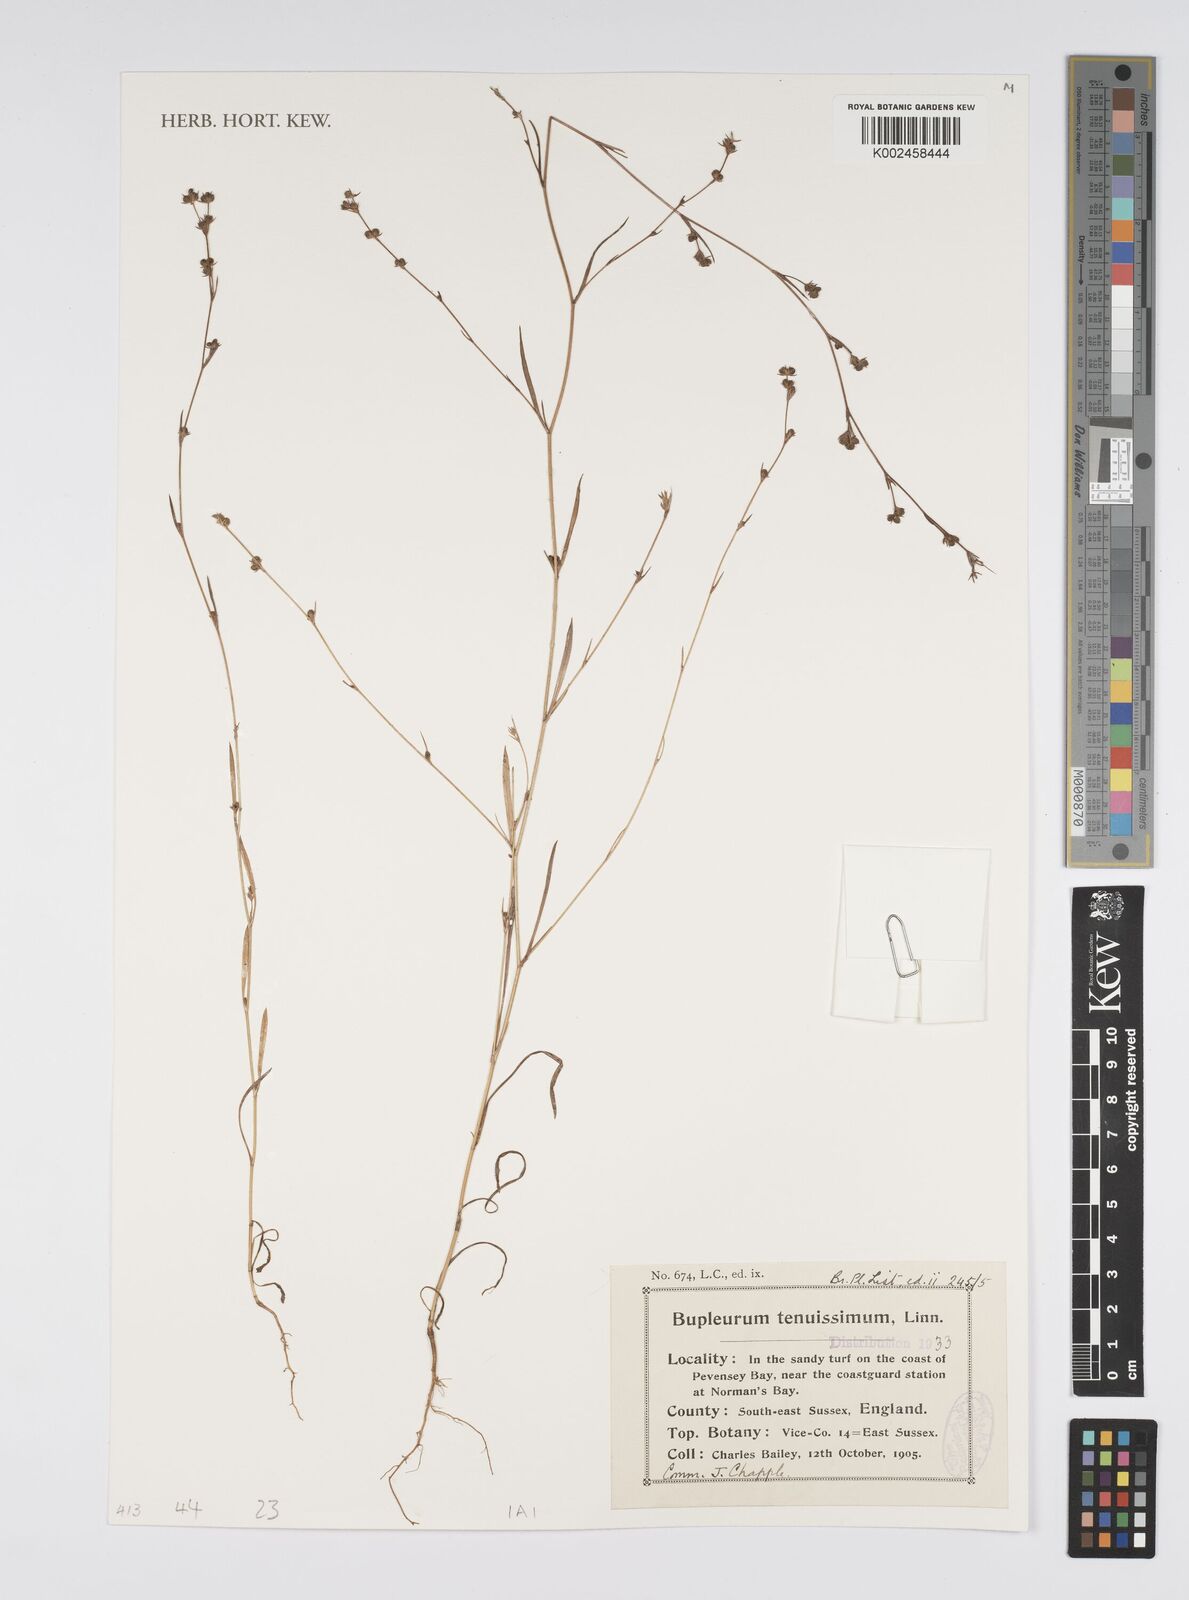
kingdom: Plantae
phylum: Tracheophyta
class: Magnoliopsida
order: Apiales
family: Apiaceae
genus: Bupleurum
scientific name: Bupleurum tenuissimum
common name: Slender hare's-ear
